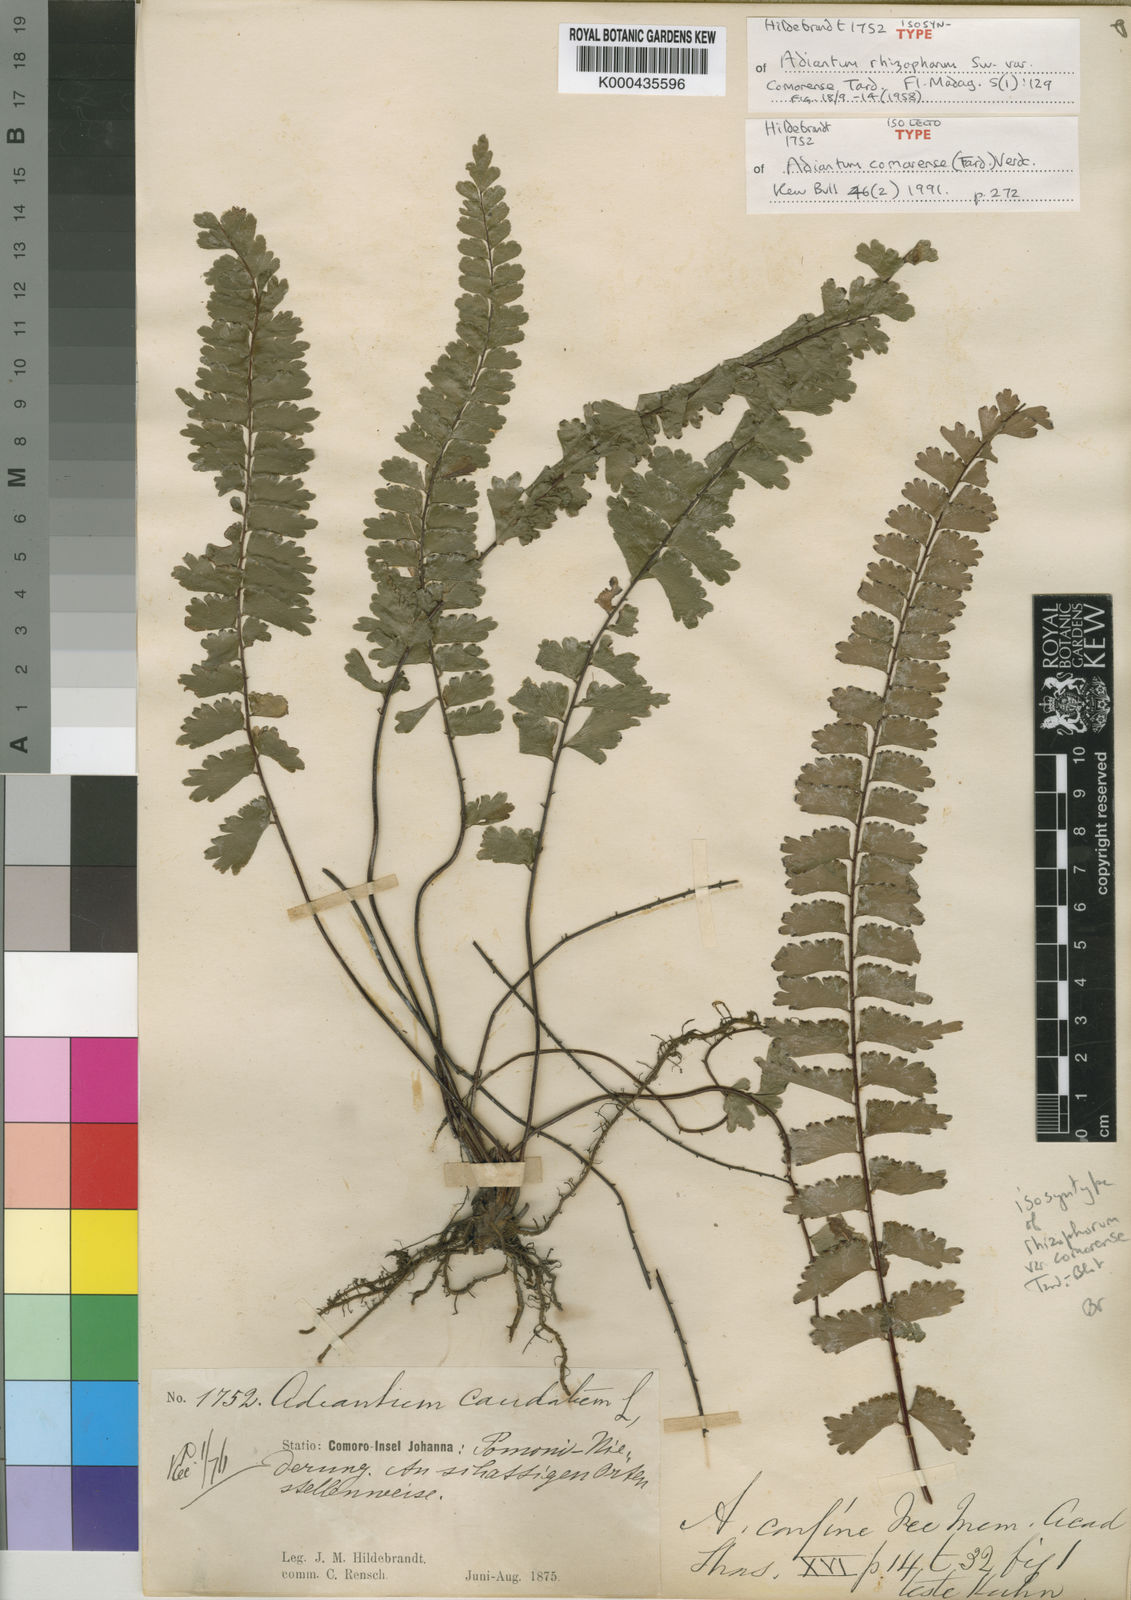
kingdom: Plantae
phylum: Tracheophyta
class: Polypodiopsida
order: Polypodiales
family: Pteridaceae
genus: Adiantum
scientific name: Adiantum
